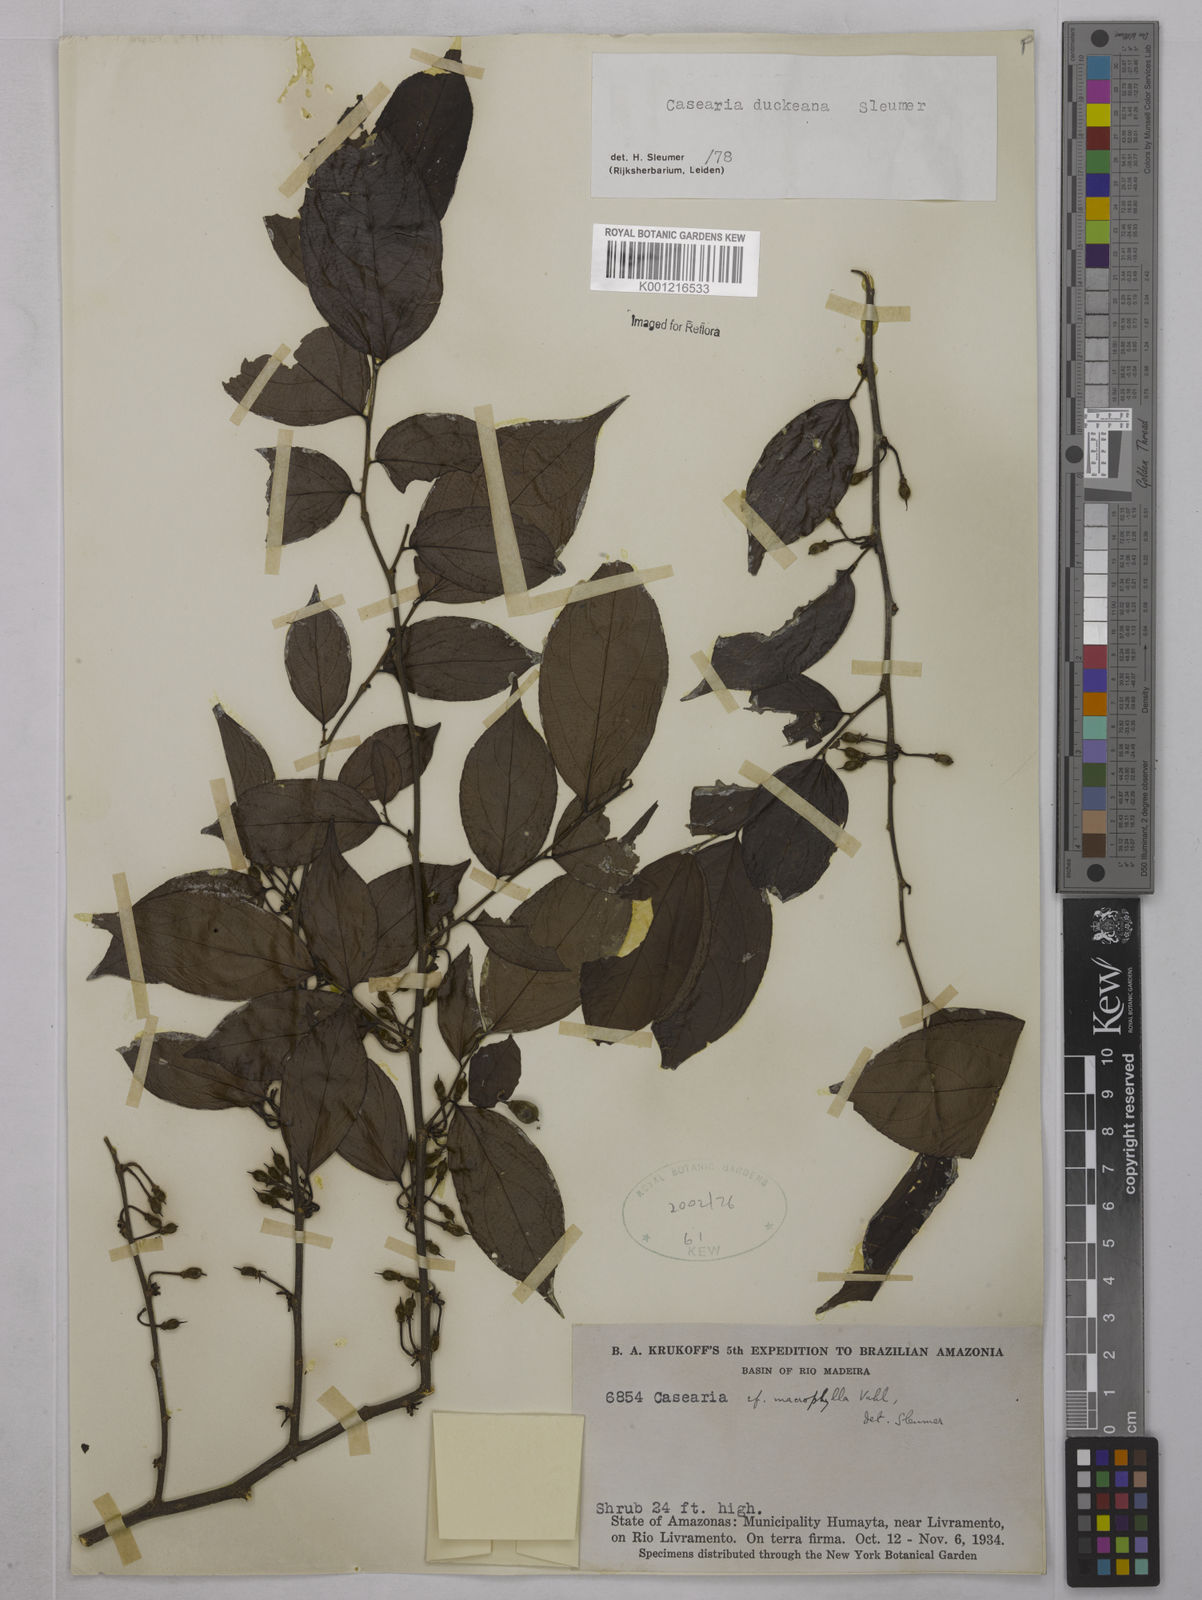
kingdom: Plantae
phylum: Tracheophyta
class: Magnoliopsida
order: Malpighiales
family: Salicaceae
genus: Casearia
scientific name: Casearia duckeana
